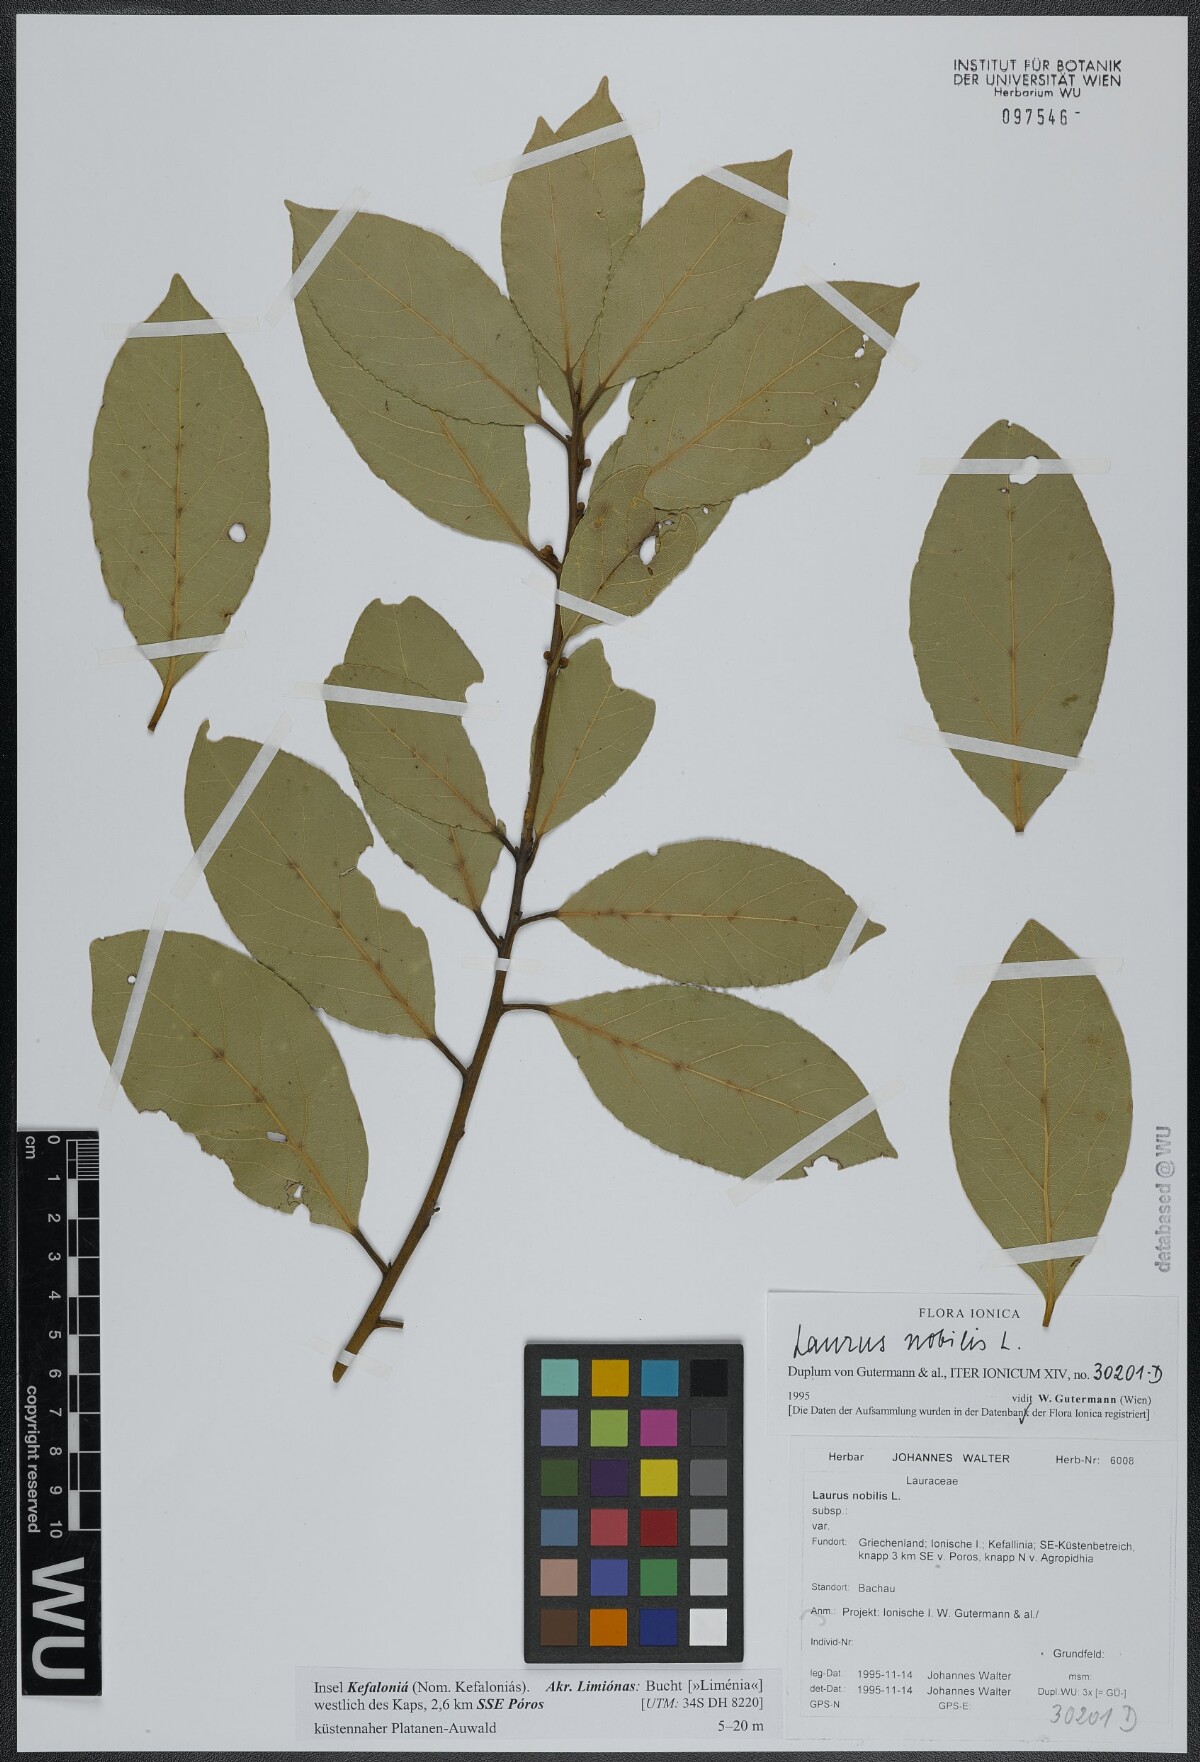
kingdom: Plantae
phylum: Tracheophyta
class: Magnoliopsida
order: Laurales
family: Lauraceae
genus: Laurus
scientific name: Laurus nobilis
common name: Bay
